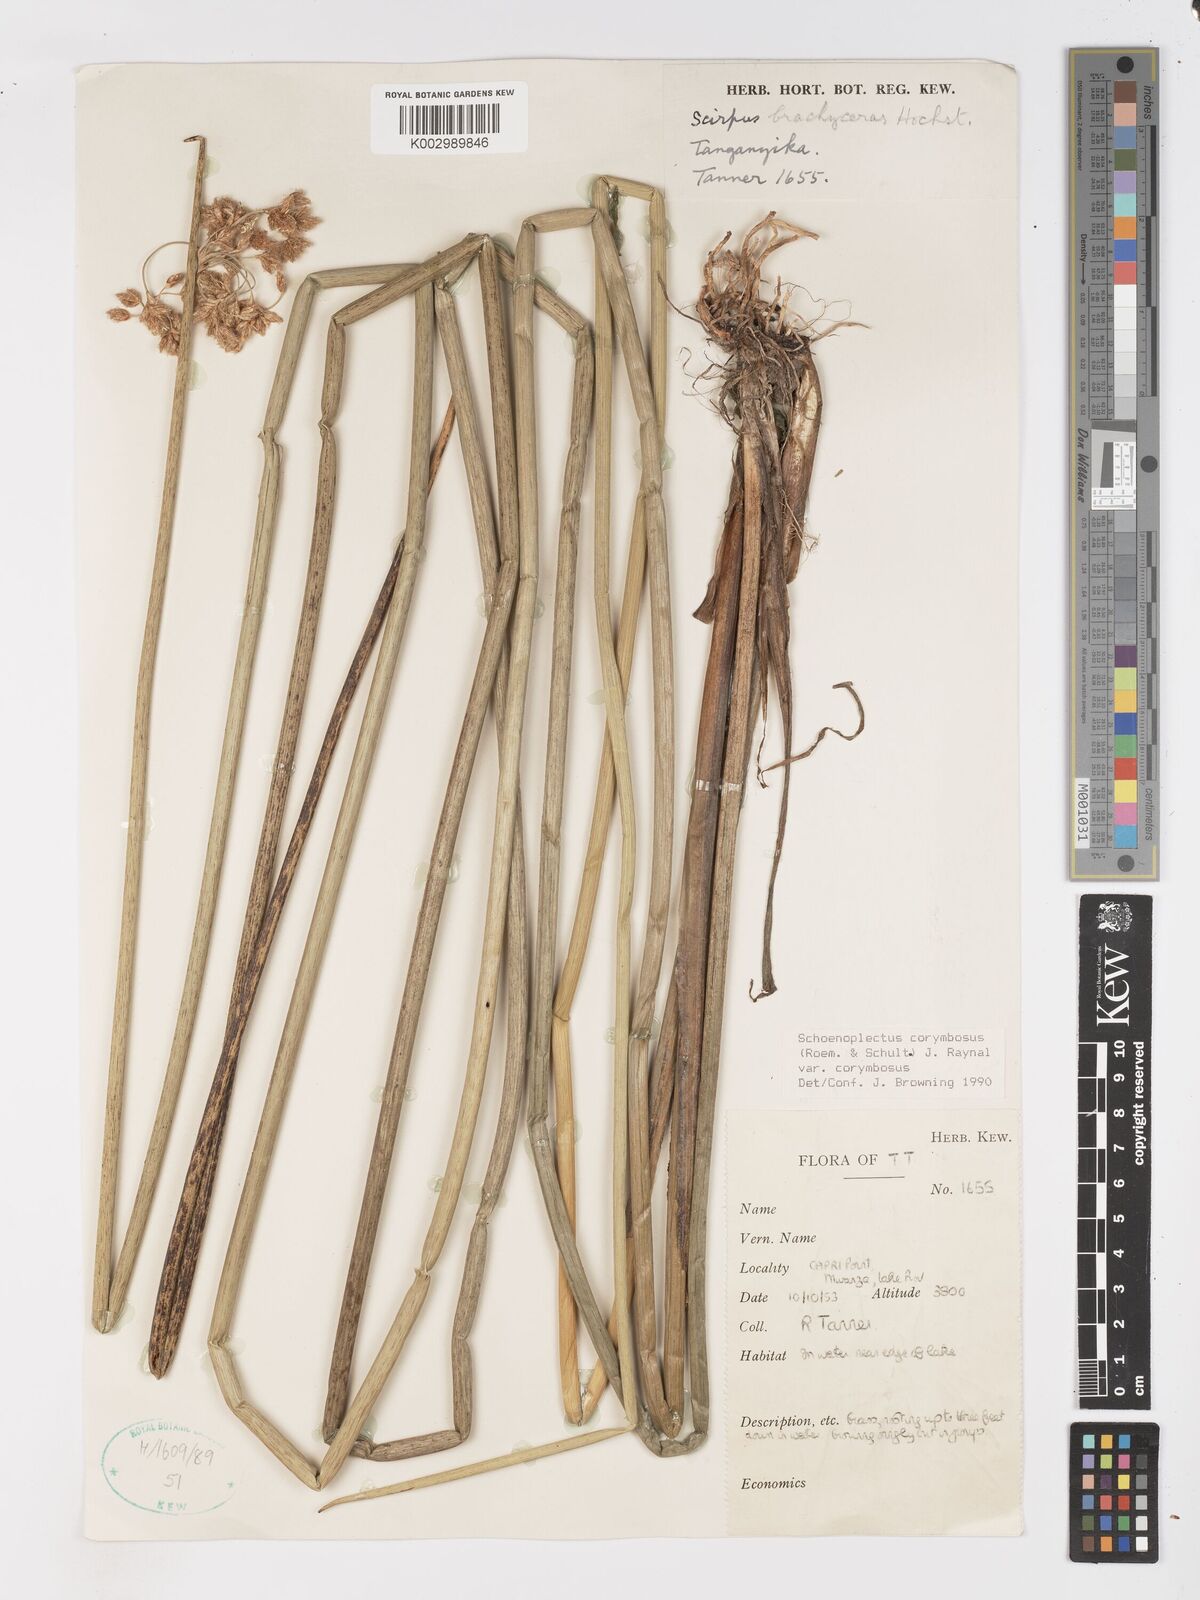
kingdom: Plantae
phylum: Tracheophyta
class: Liliopsida
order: Poales
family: Cyperaceae
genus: Schoenoplectiella
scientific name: Schoenoplectiella corymbosa
